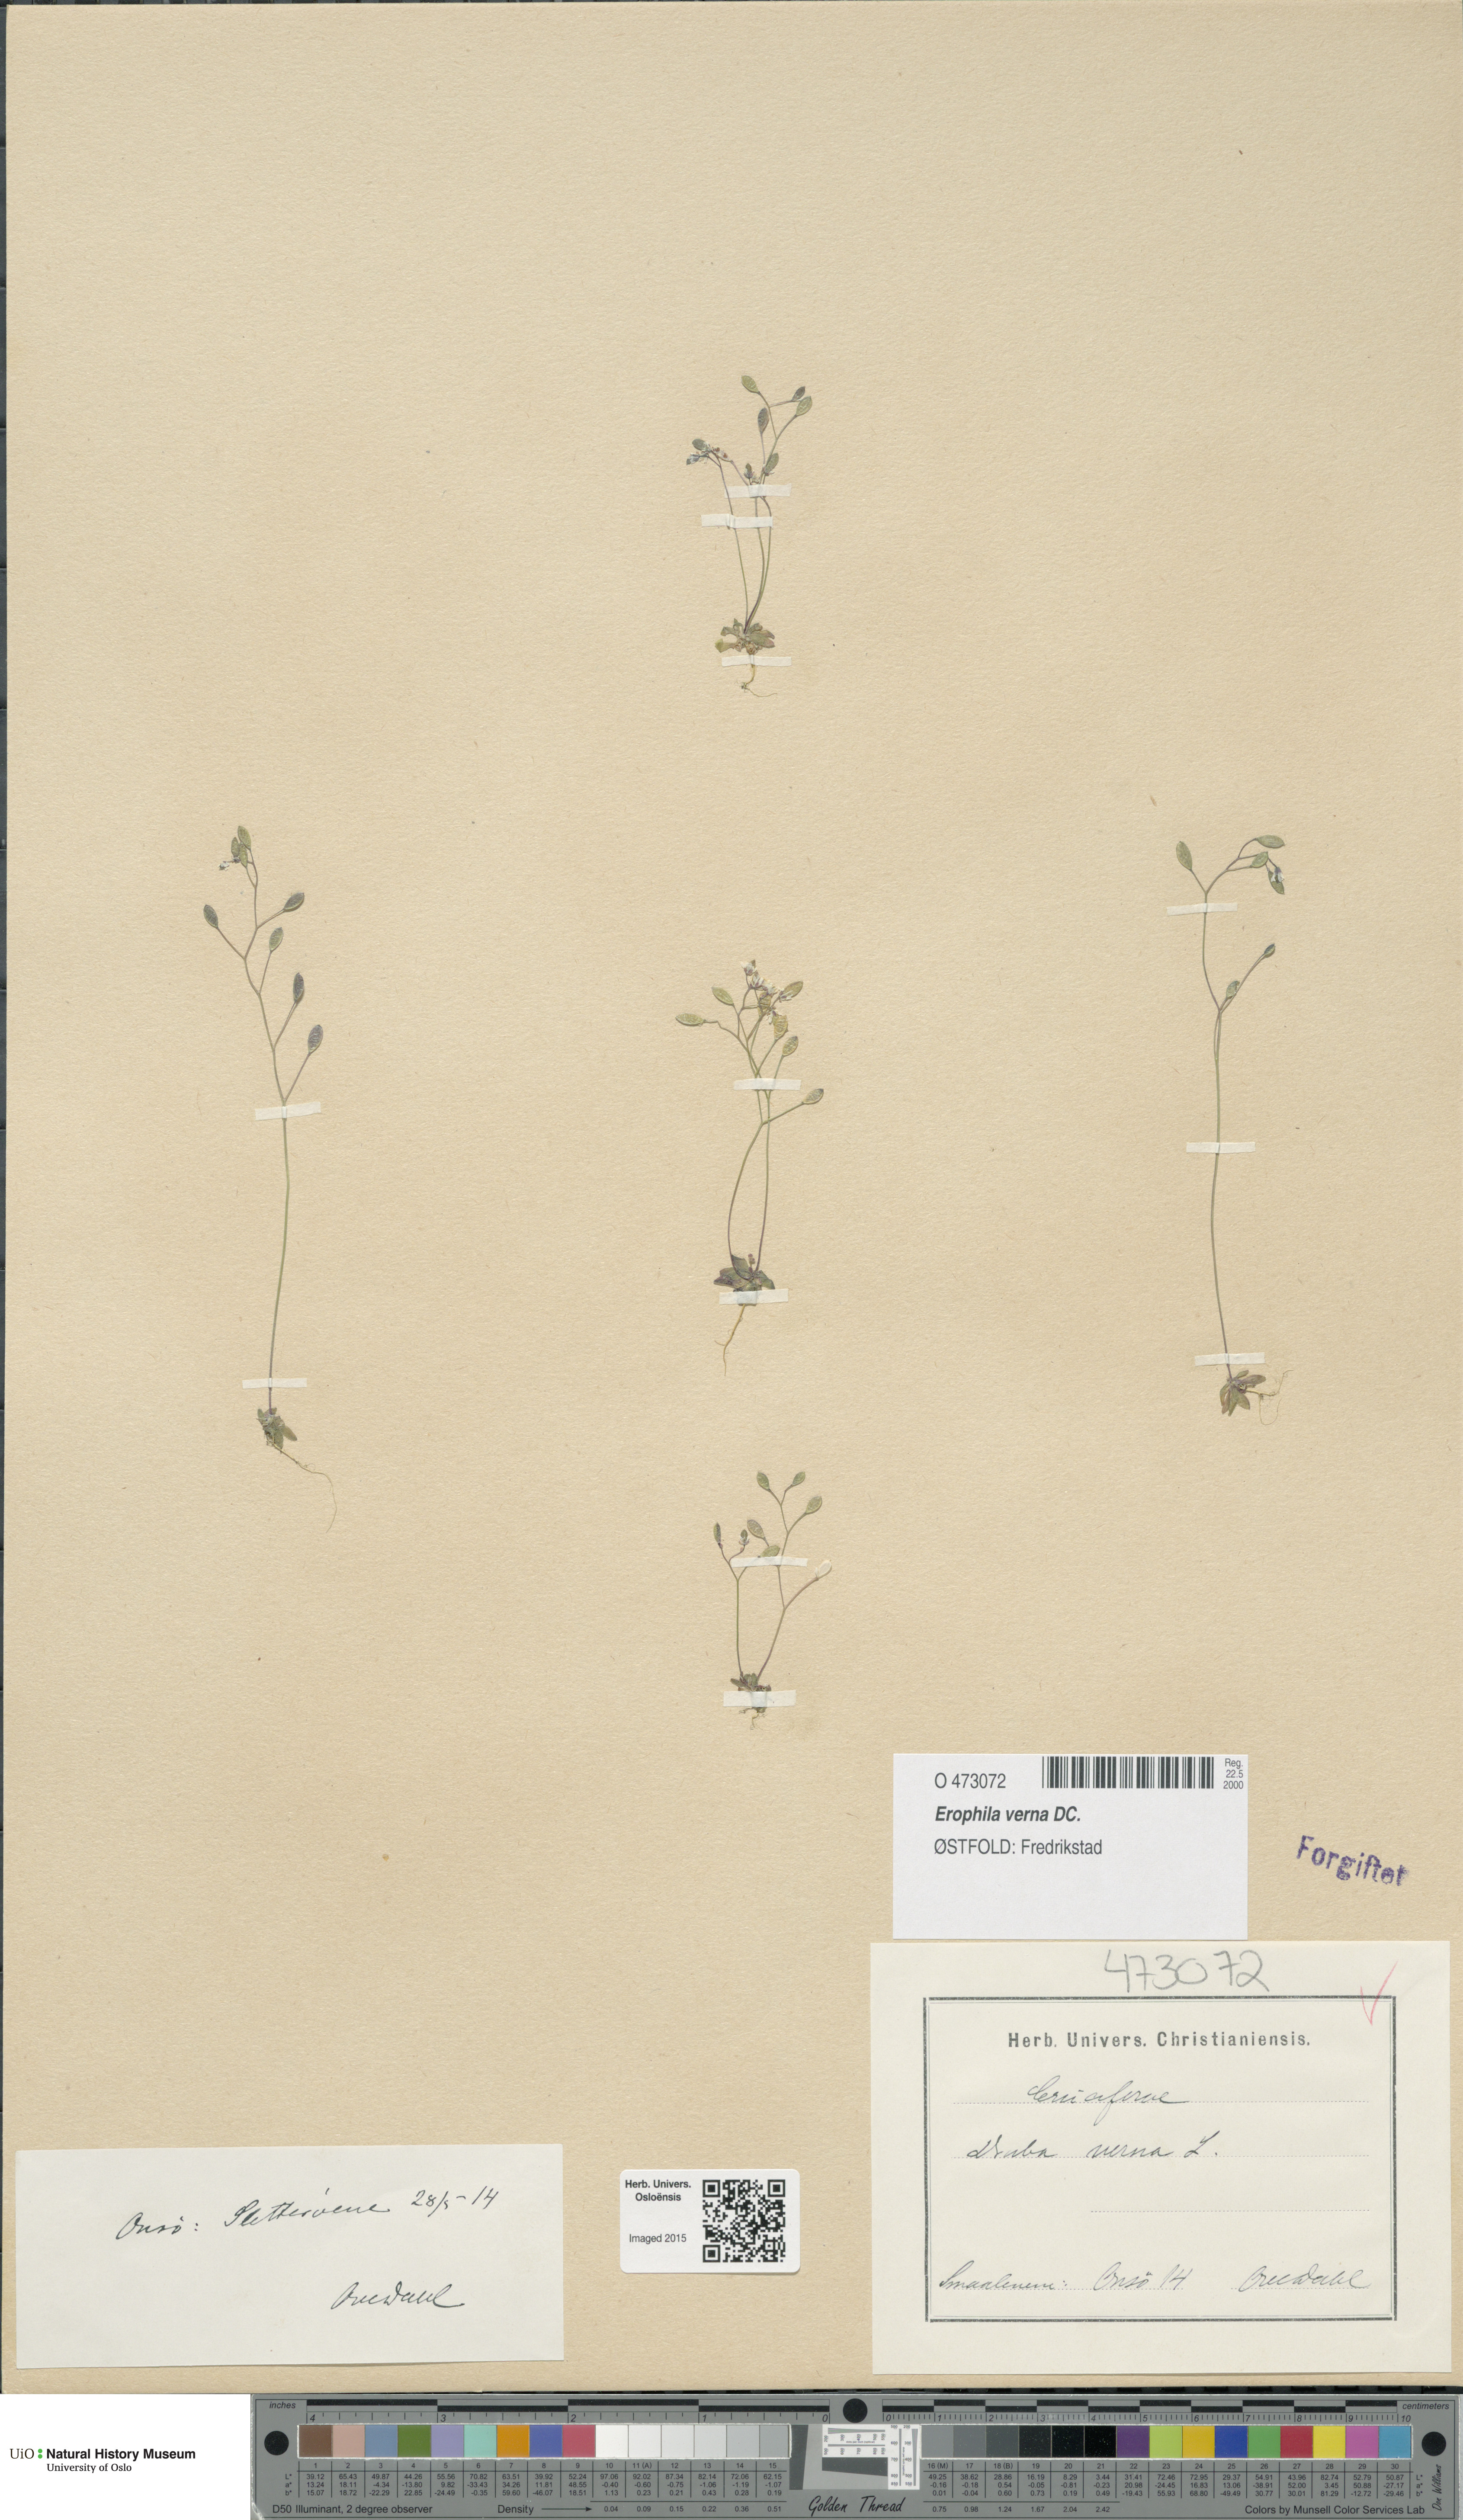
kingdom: Plantae
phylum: Tracheophyta
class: Magnoliopsida
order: Brassicales
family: Brassicaceae
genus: Draba
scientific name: Draba verna
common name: Spring draba
